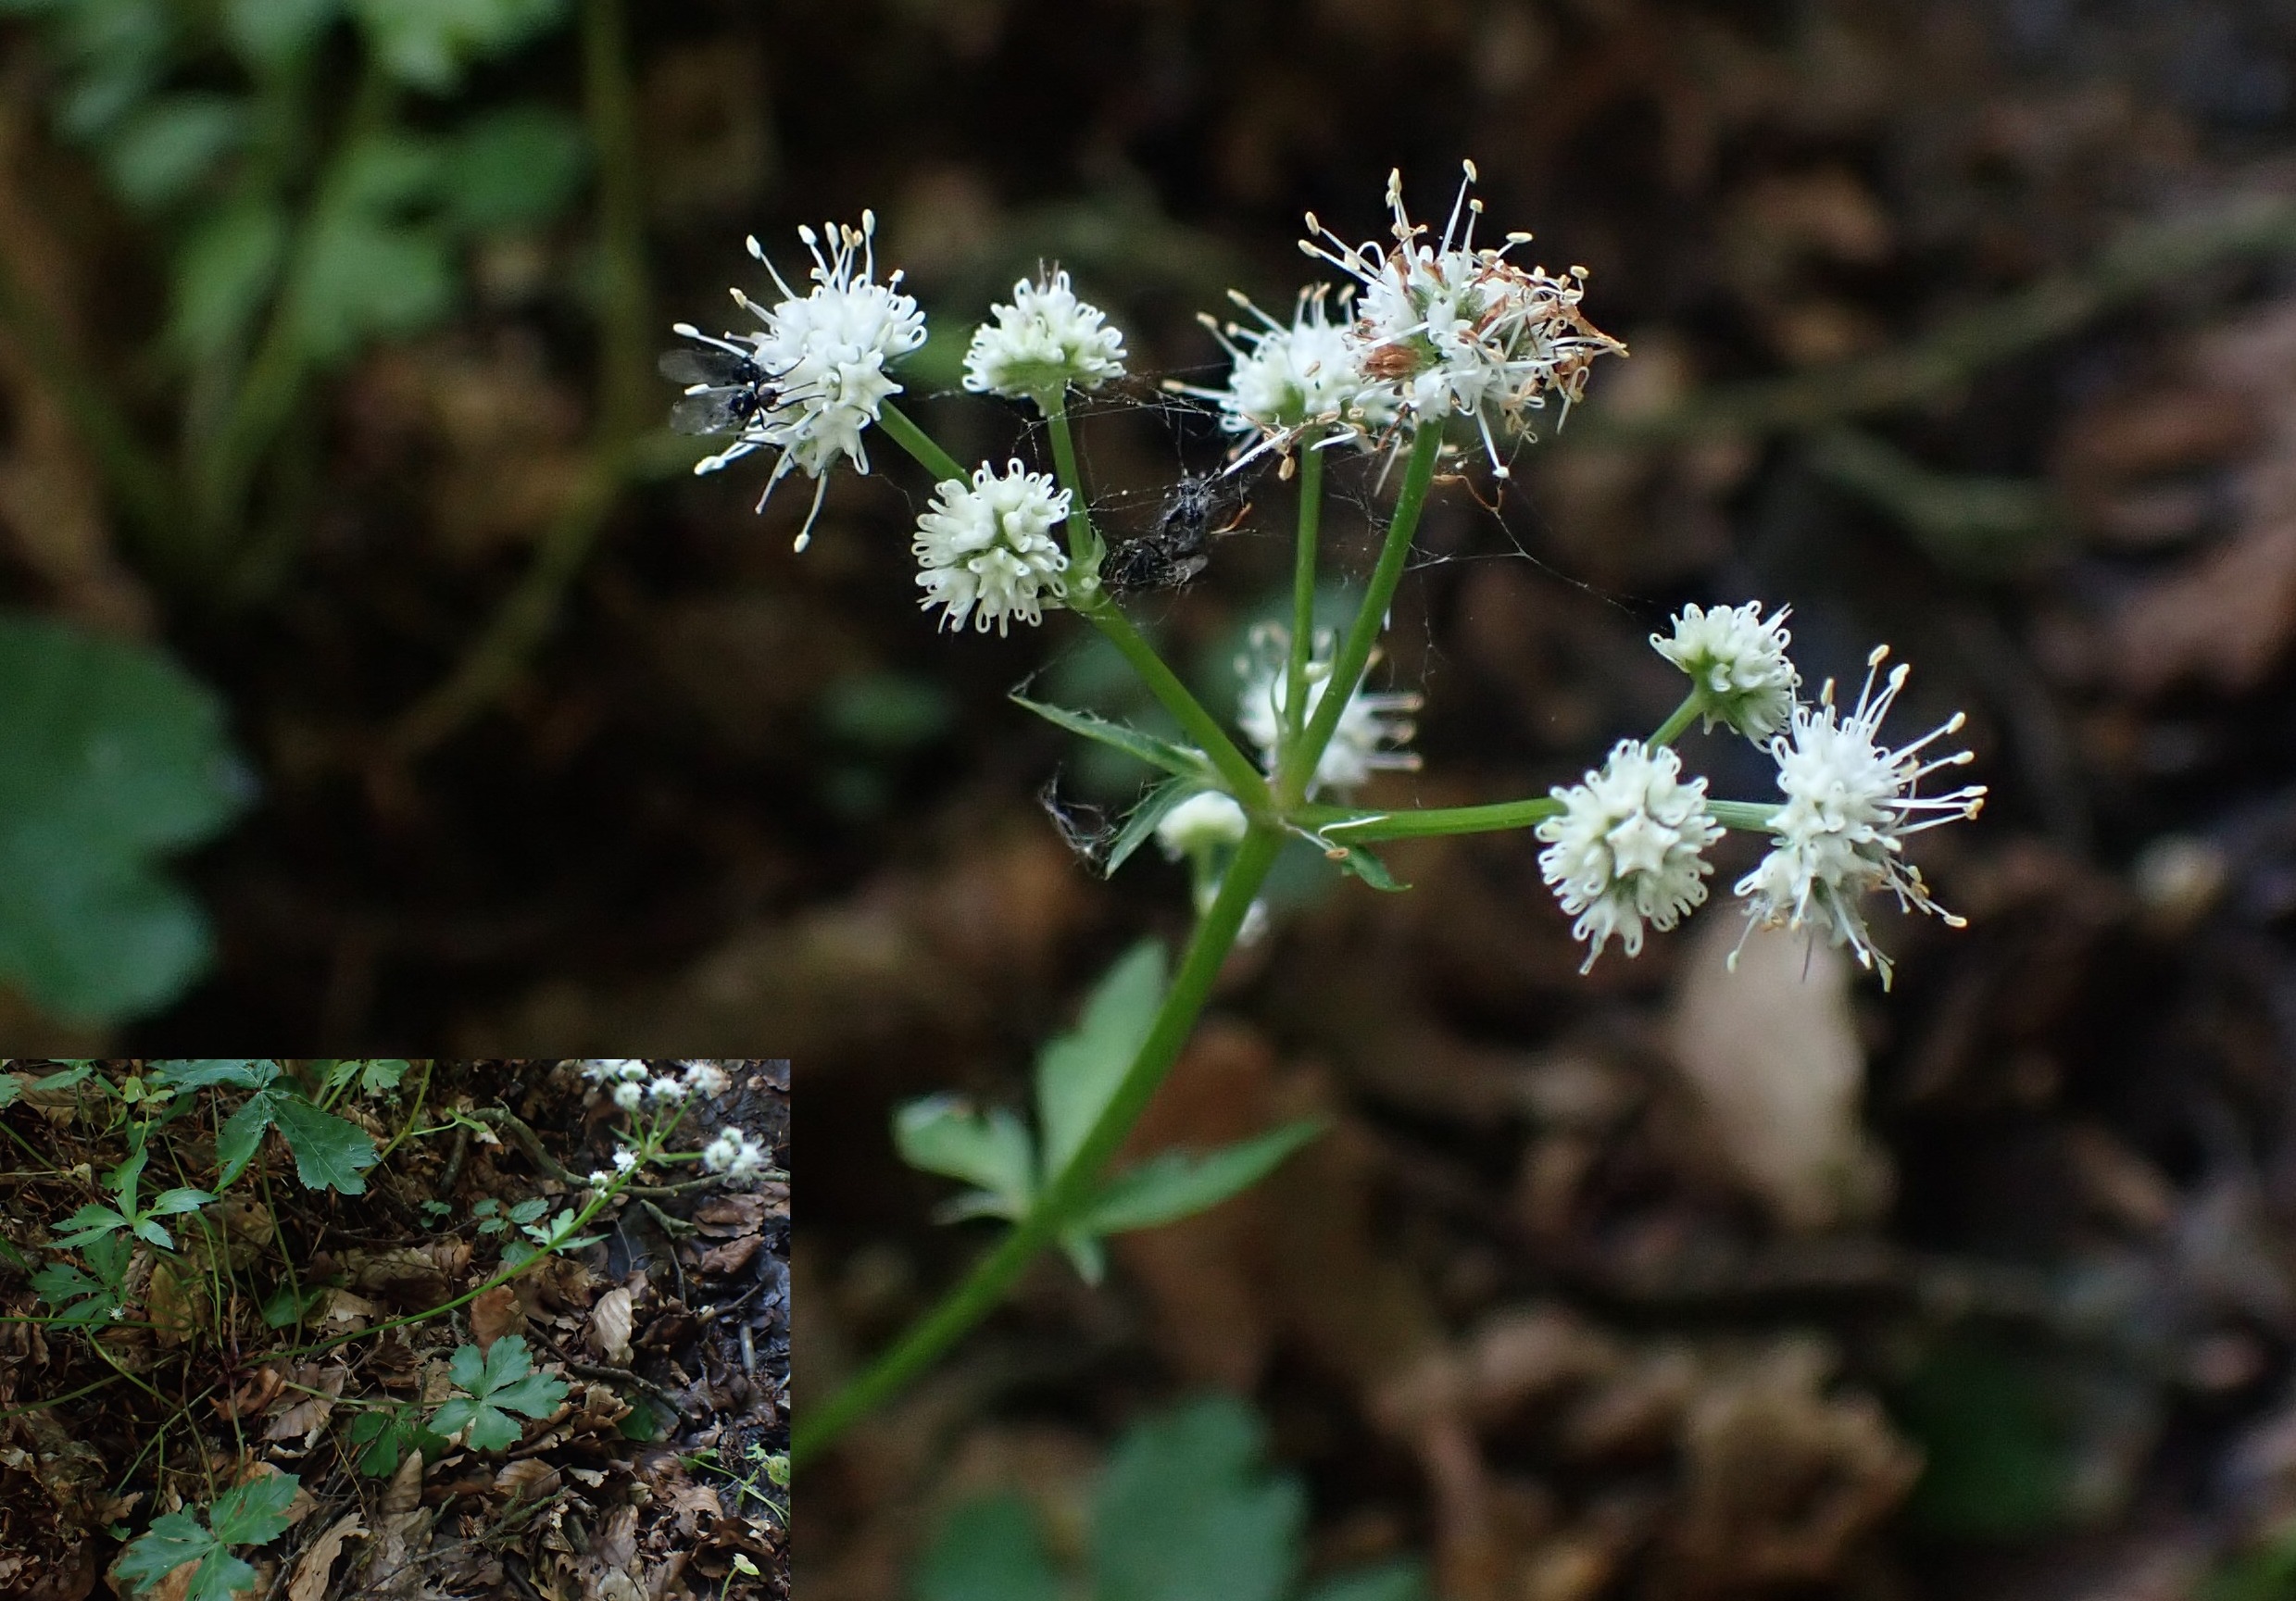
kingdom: Plantae
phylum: Tracheophyta
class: Magnoliopsida
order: Apiales
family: Apiaceae
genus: Sanicula
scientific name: Sanicula europaea
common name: Sanikel
